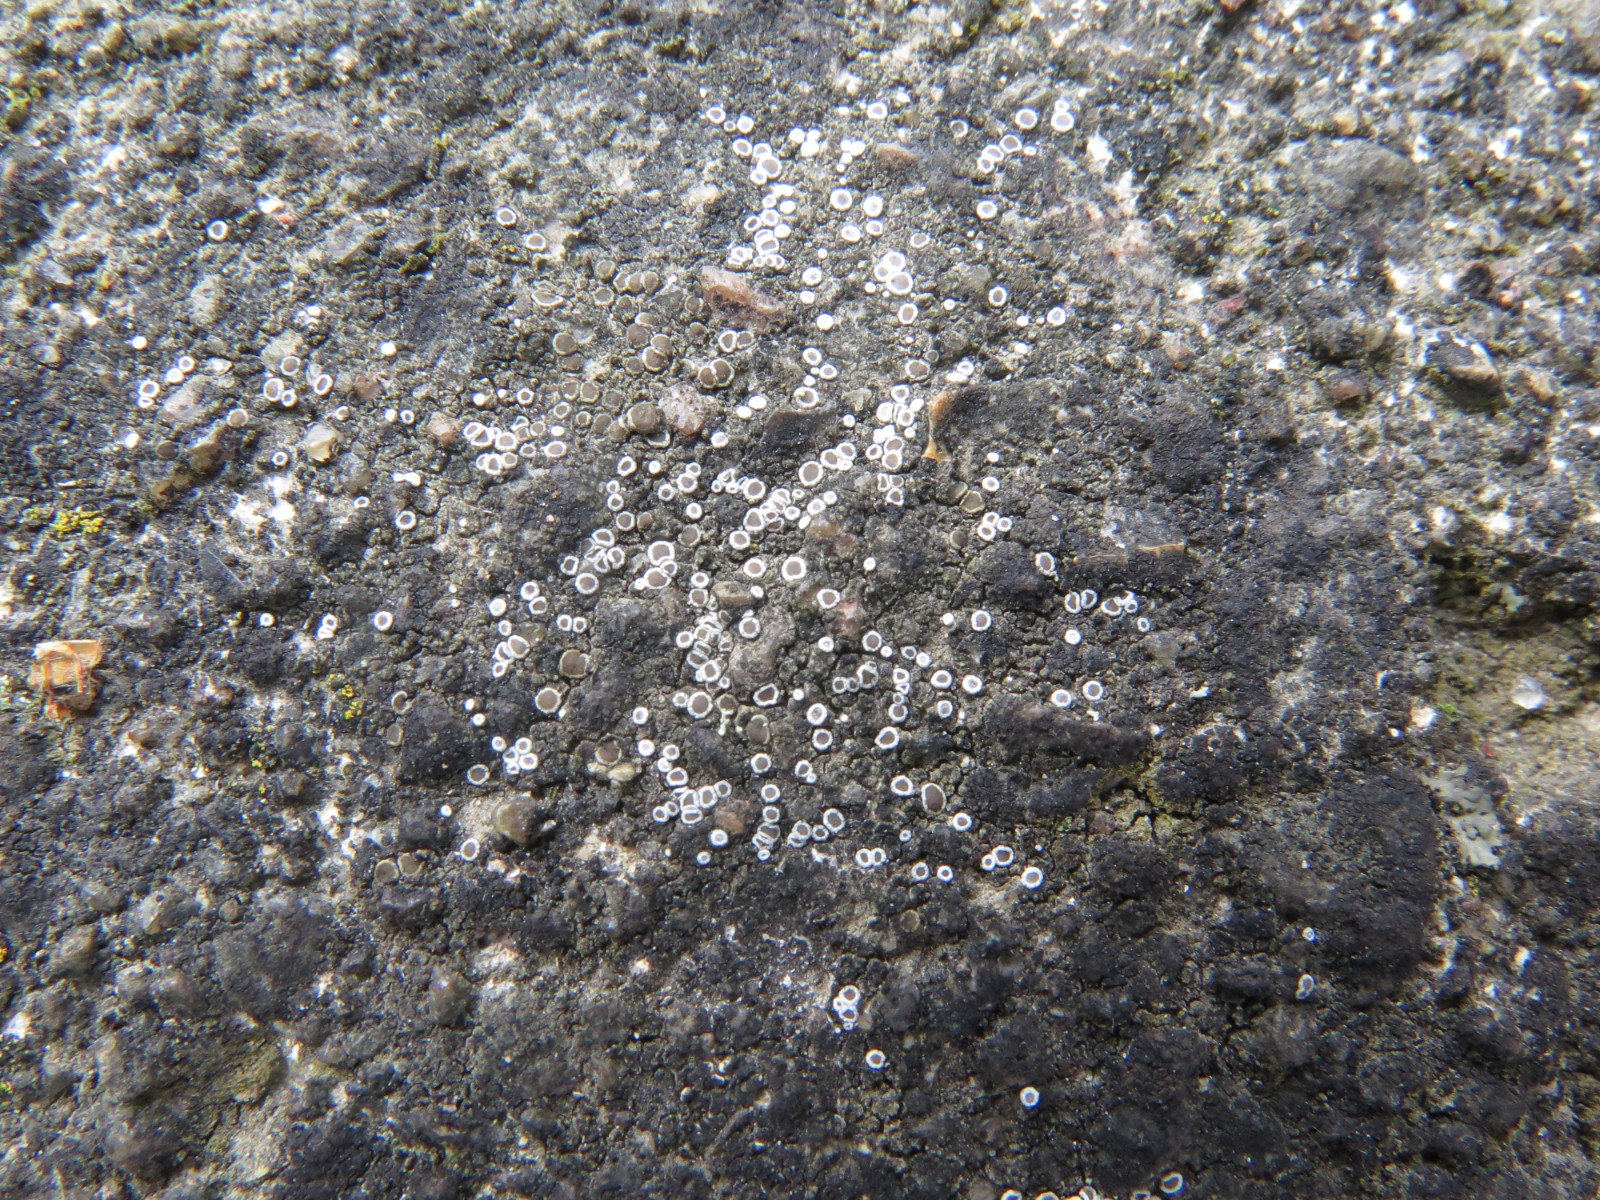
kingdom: Fungi
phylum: Ascomycota
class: Lecanoromycetes
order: Lecanorales
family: Lecanoraceae
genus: Polyozosia
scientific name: Polyozosia dispersa
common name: spredt kantskivelav
